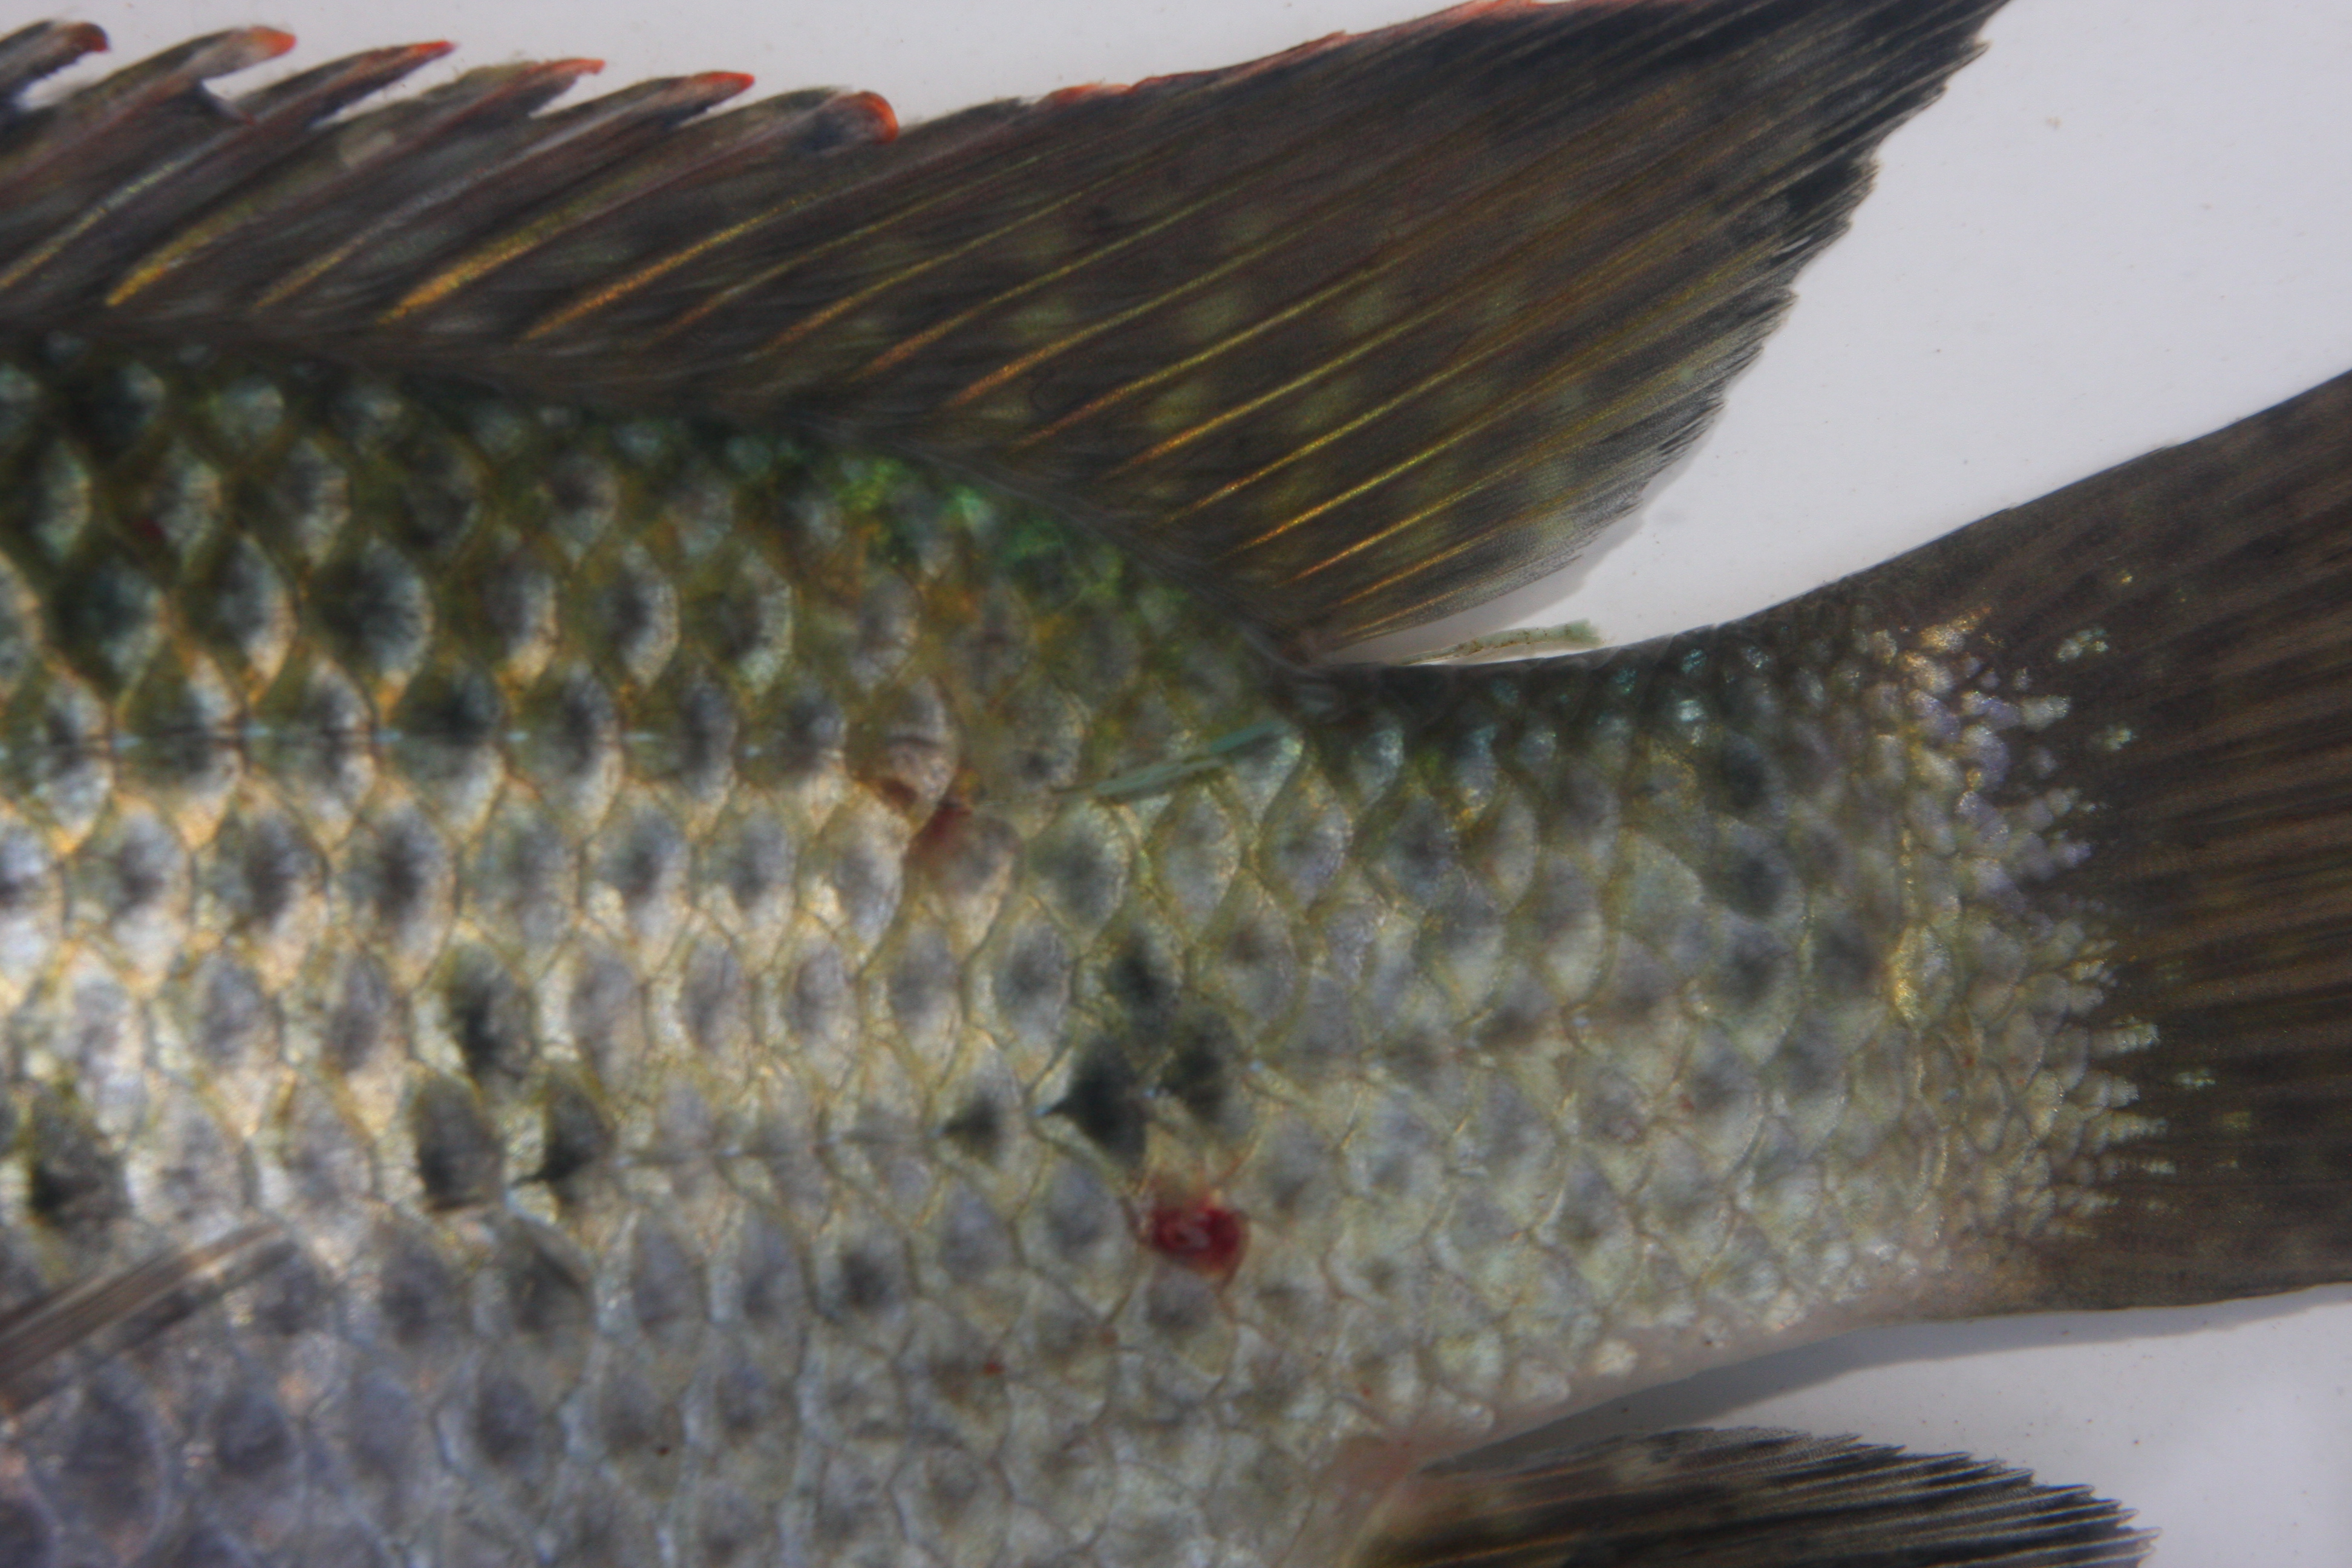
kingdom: Animalia
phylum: Chordata
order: Perciformes
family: Cichlidae
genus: Oreochromis
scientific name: Oreochromis aureus
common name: Blue tilapia
